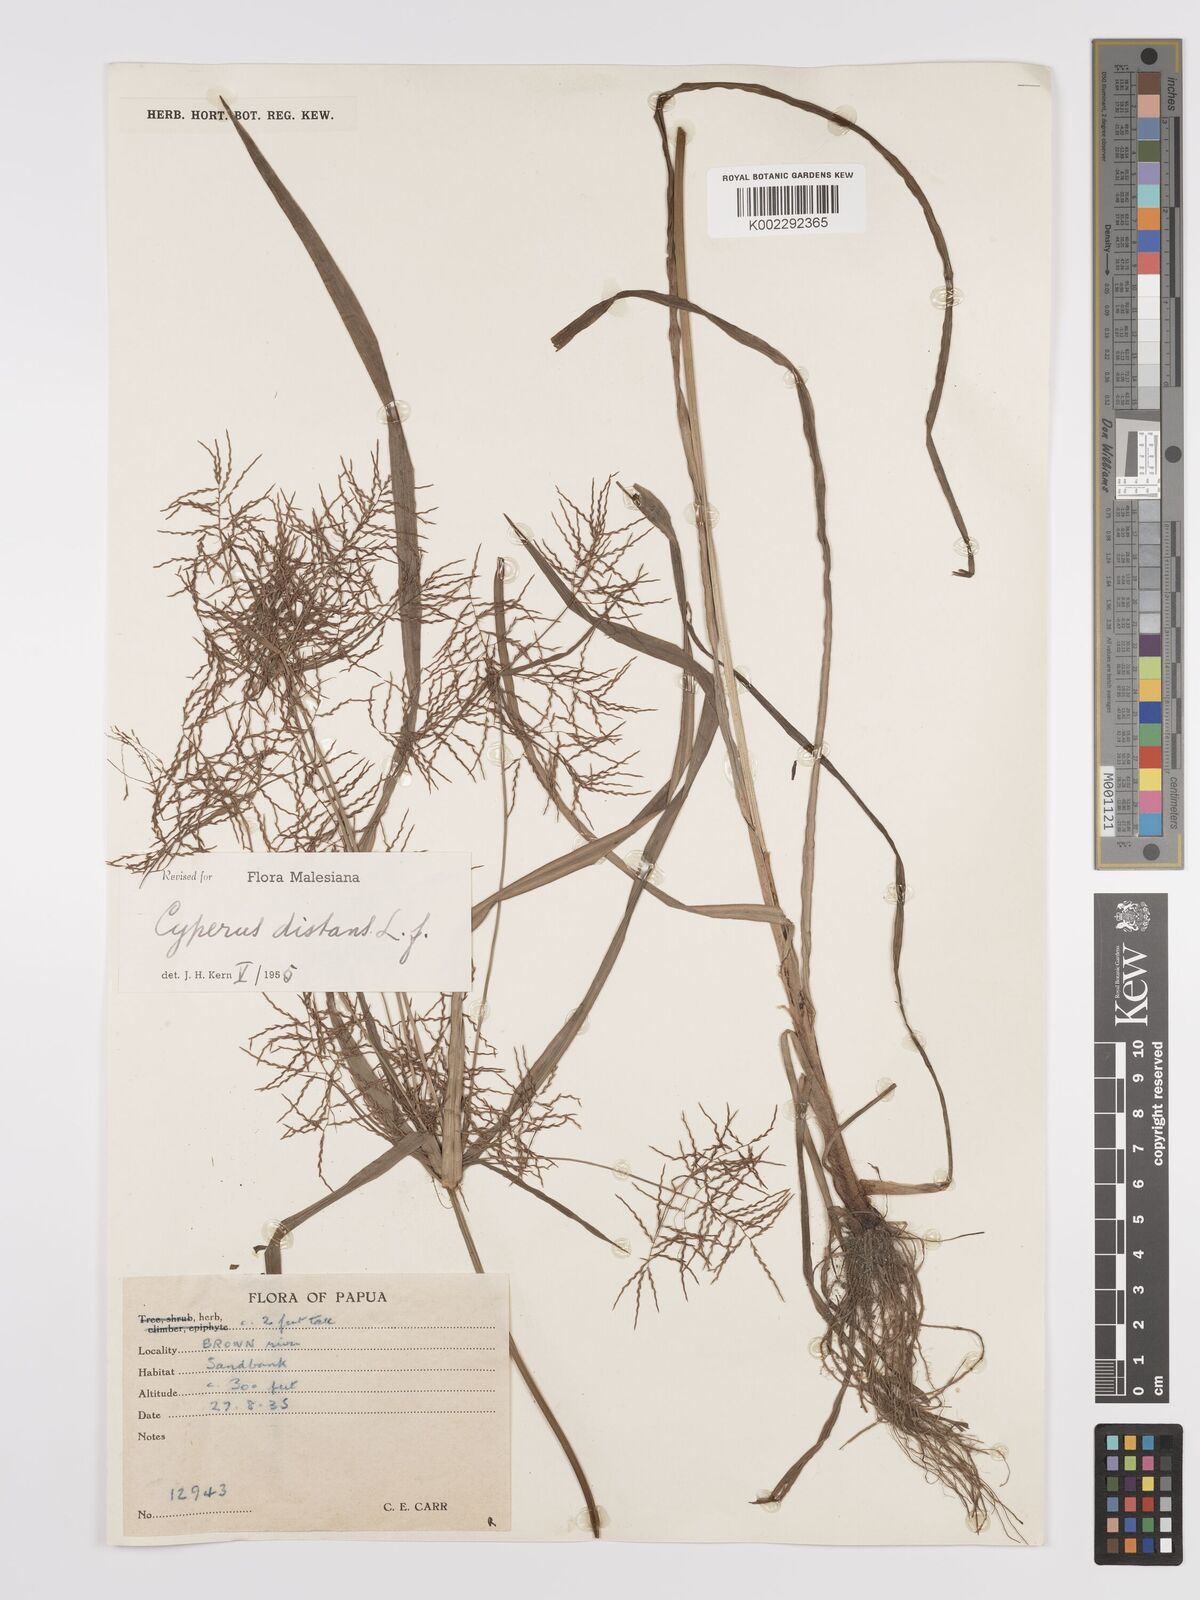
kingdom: Plantae
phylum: Tracheophyta
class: Liliopsida
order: Poales
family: Cyperaceae
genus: Cyperus
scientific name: Cyperus distans
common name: Slender cyperus
